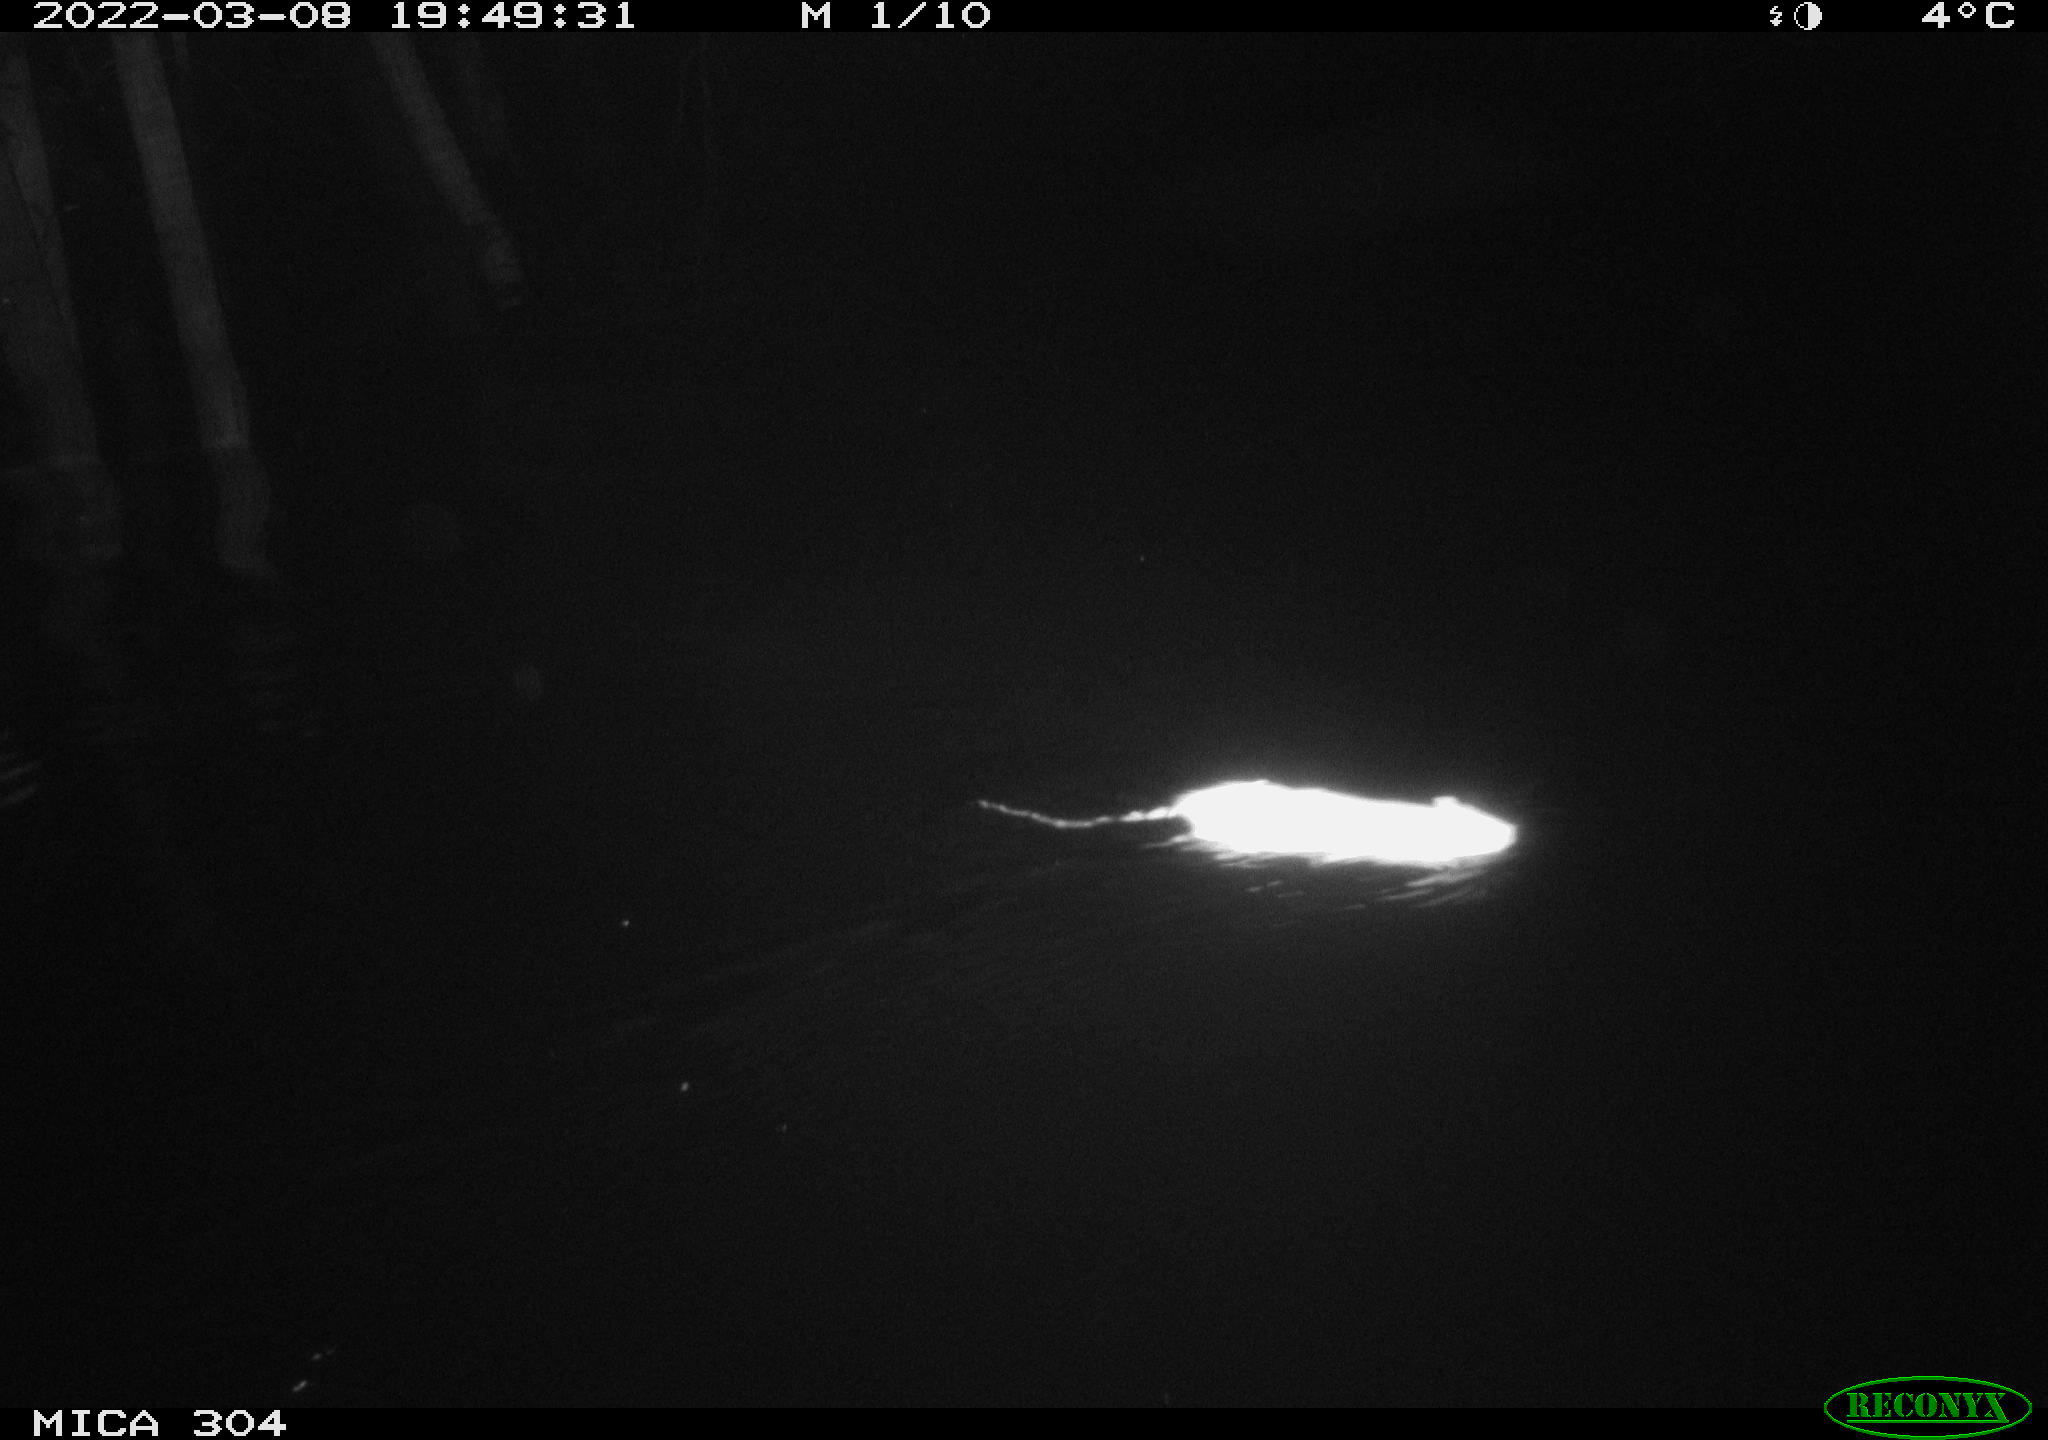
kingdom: Animalia
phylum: Chordata
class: Mammalia
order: Rodentia
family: Muridae
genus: Rattus
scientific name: Rattus norvegicus
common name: Brown rat
